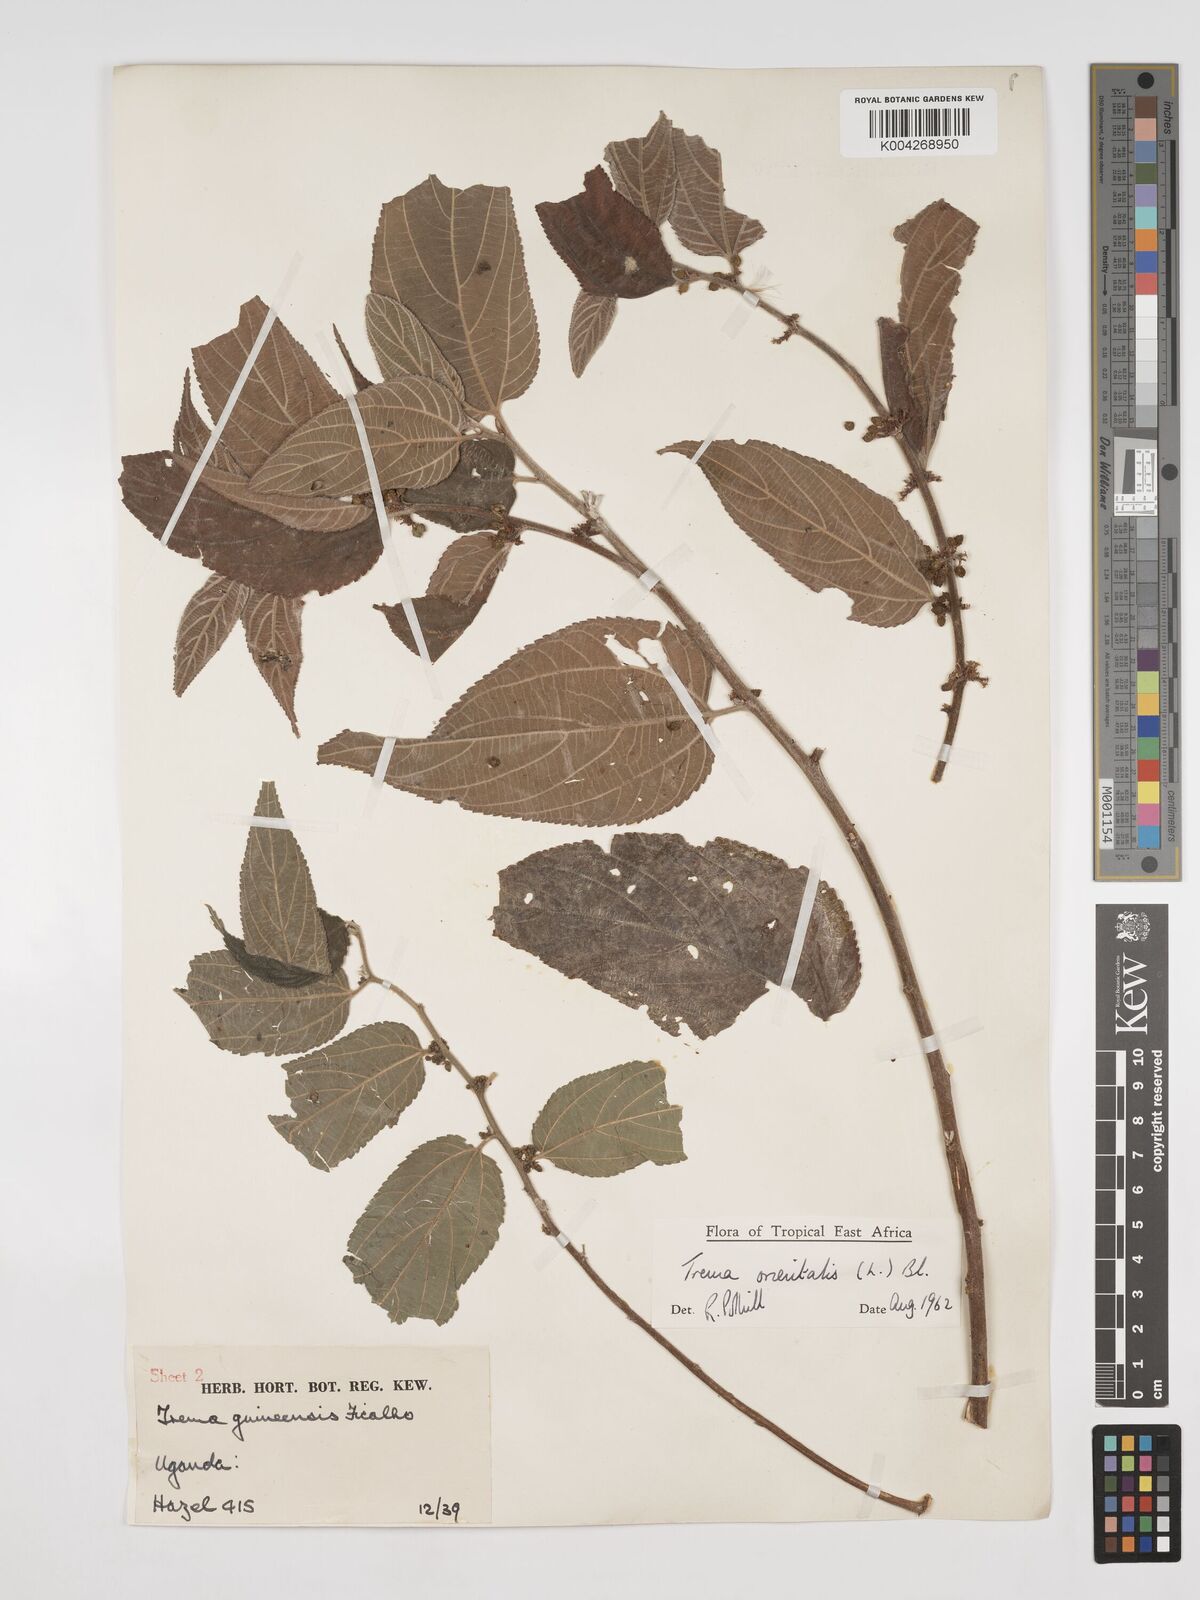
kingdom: Plantae
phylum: Tracheophyta
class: Magnoliopsida
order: Rosales
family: Cannabaceae
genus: Trema
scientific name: Trema orientale
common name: Indian charcoal tree
